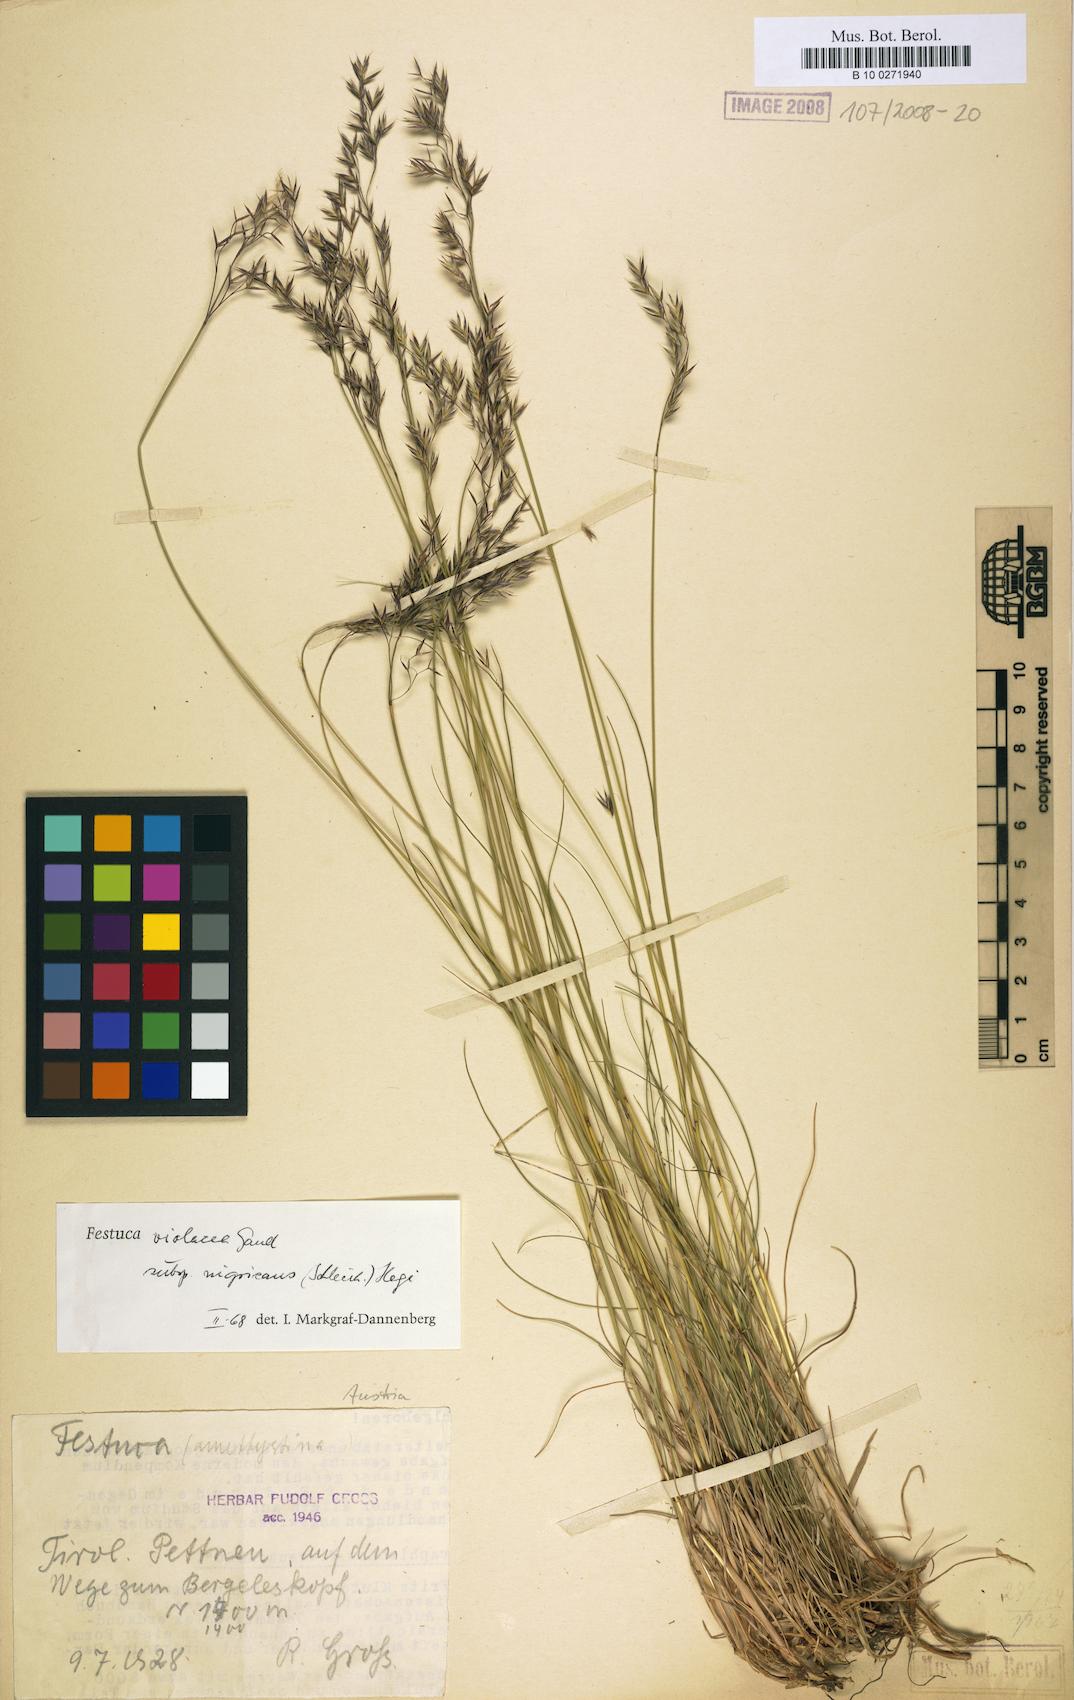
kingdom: Plantae
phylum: Tracheophyta
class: Liliopsida
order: Poales
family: Poaceae
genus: Festuca
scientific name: Festuca violacea
